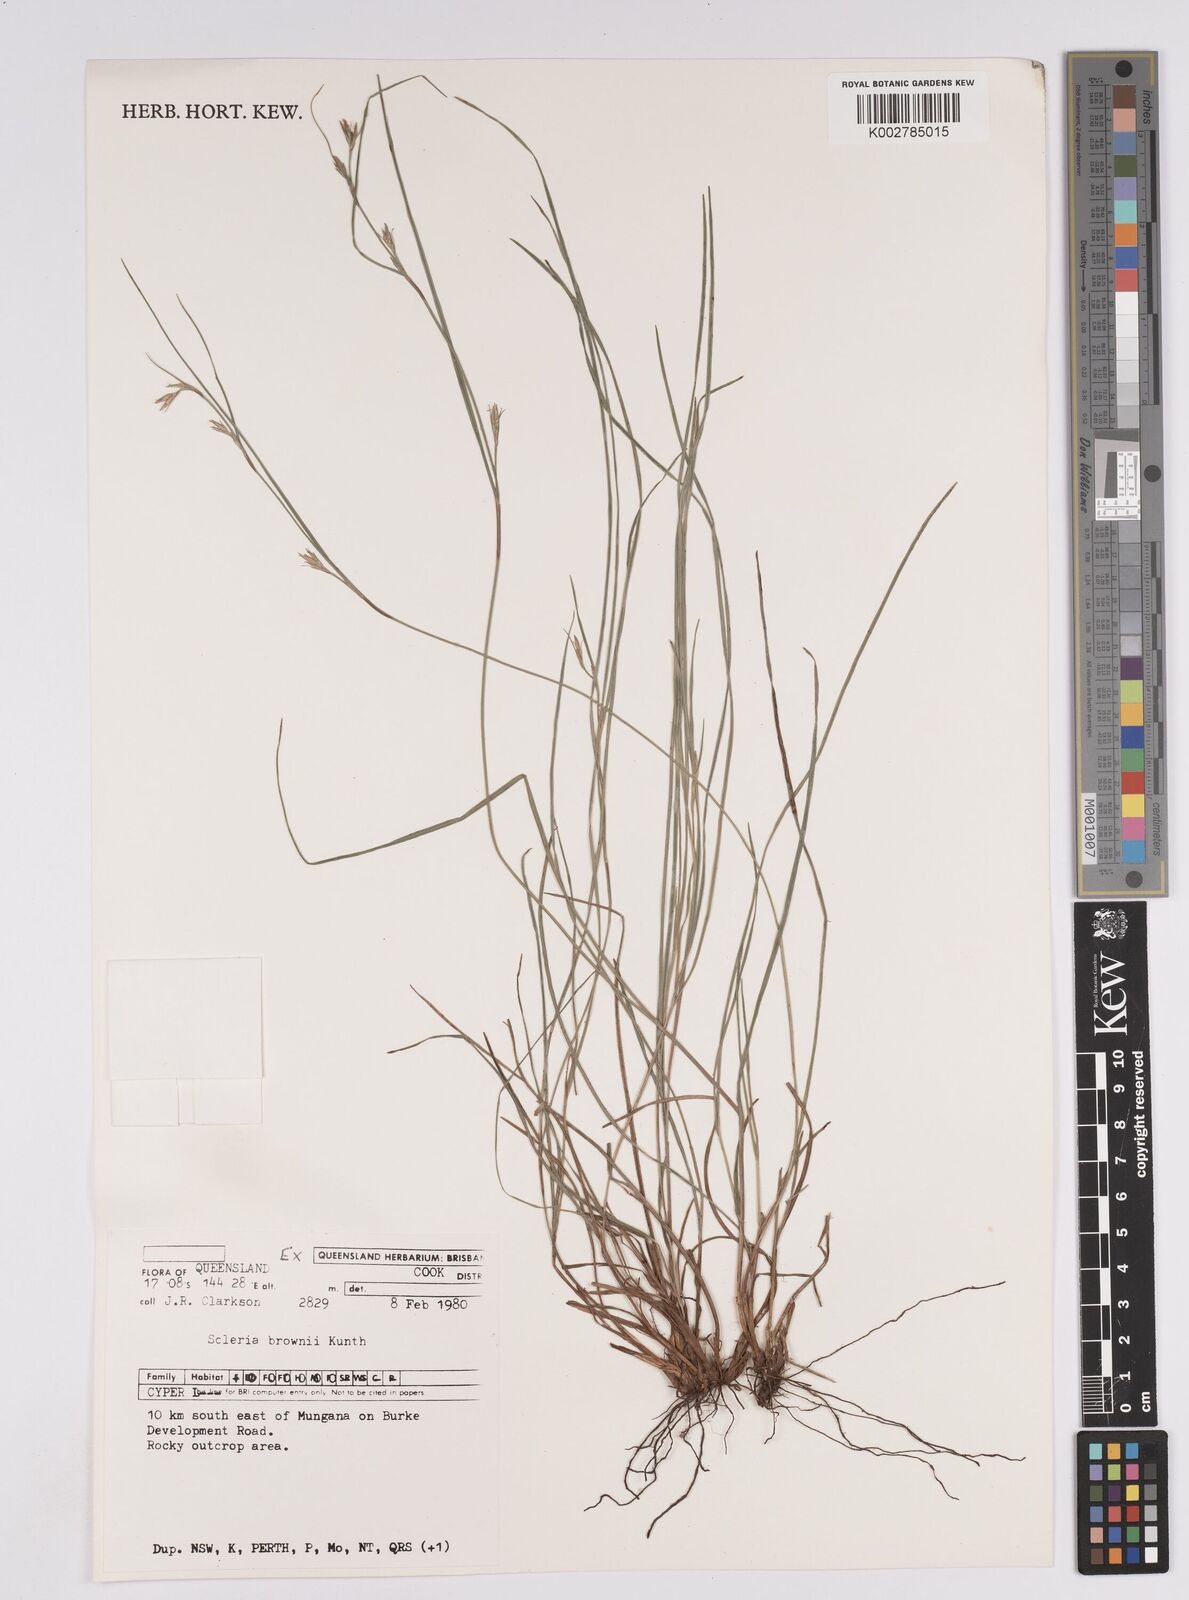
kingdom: Plantae
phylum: Tracheophyta
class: Liliopsida
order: Poales
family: Cyperaceae
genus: Scleria
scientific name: Scleria brownii
